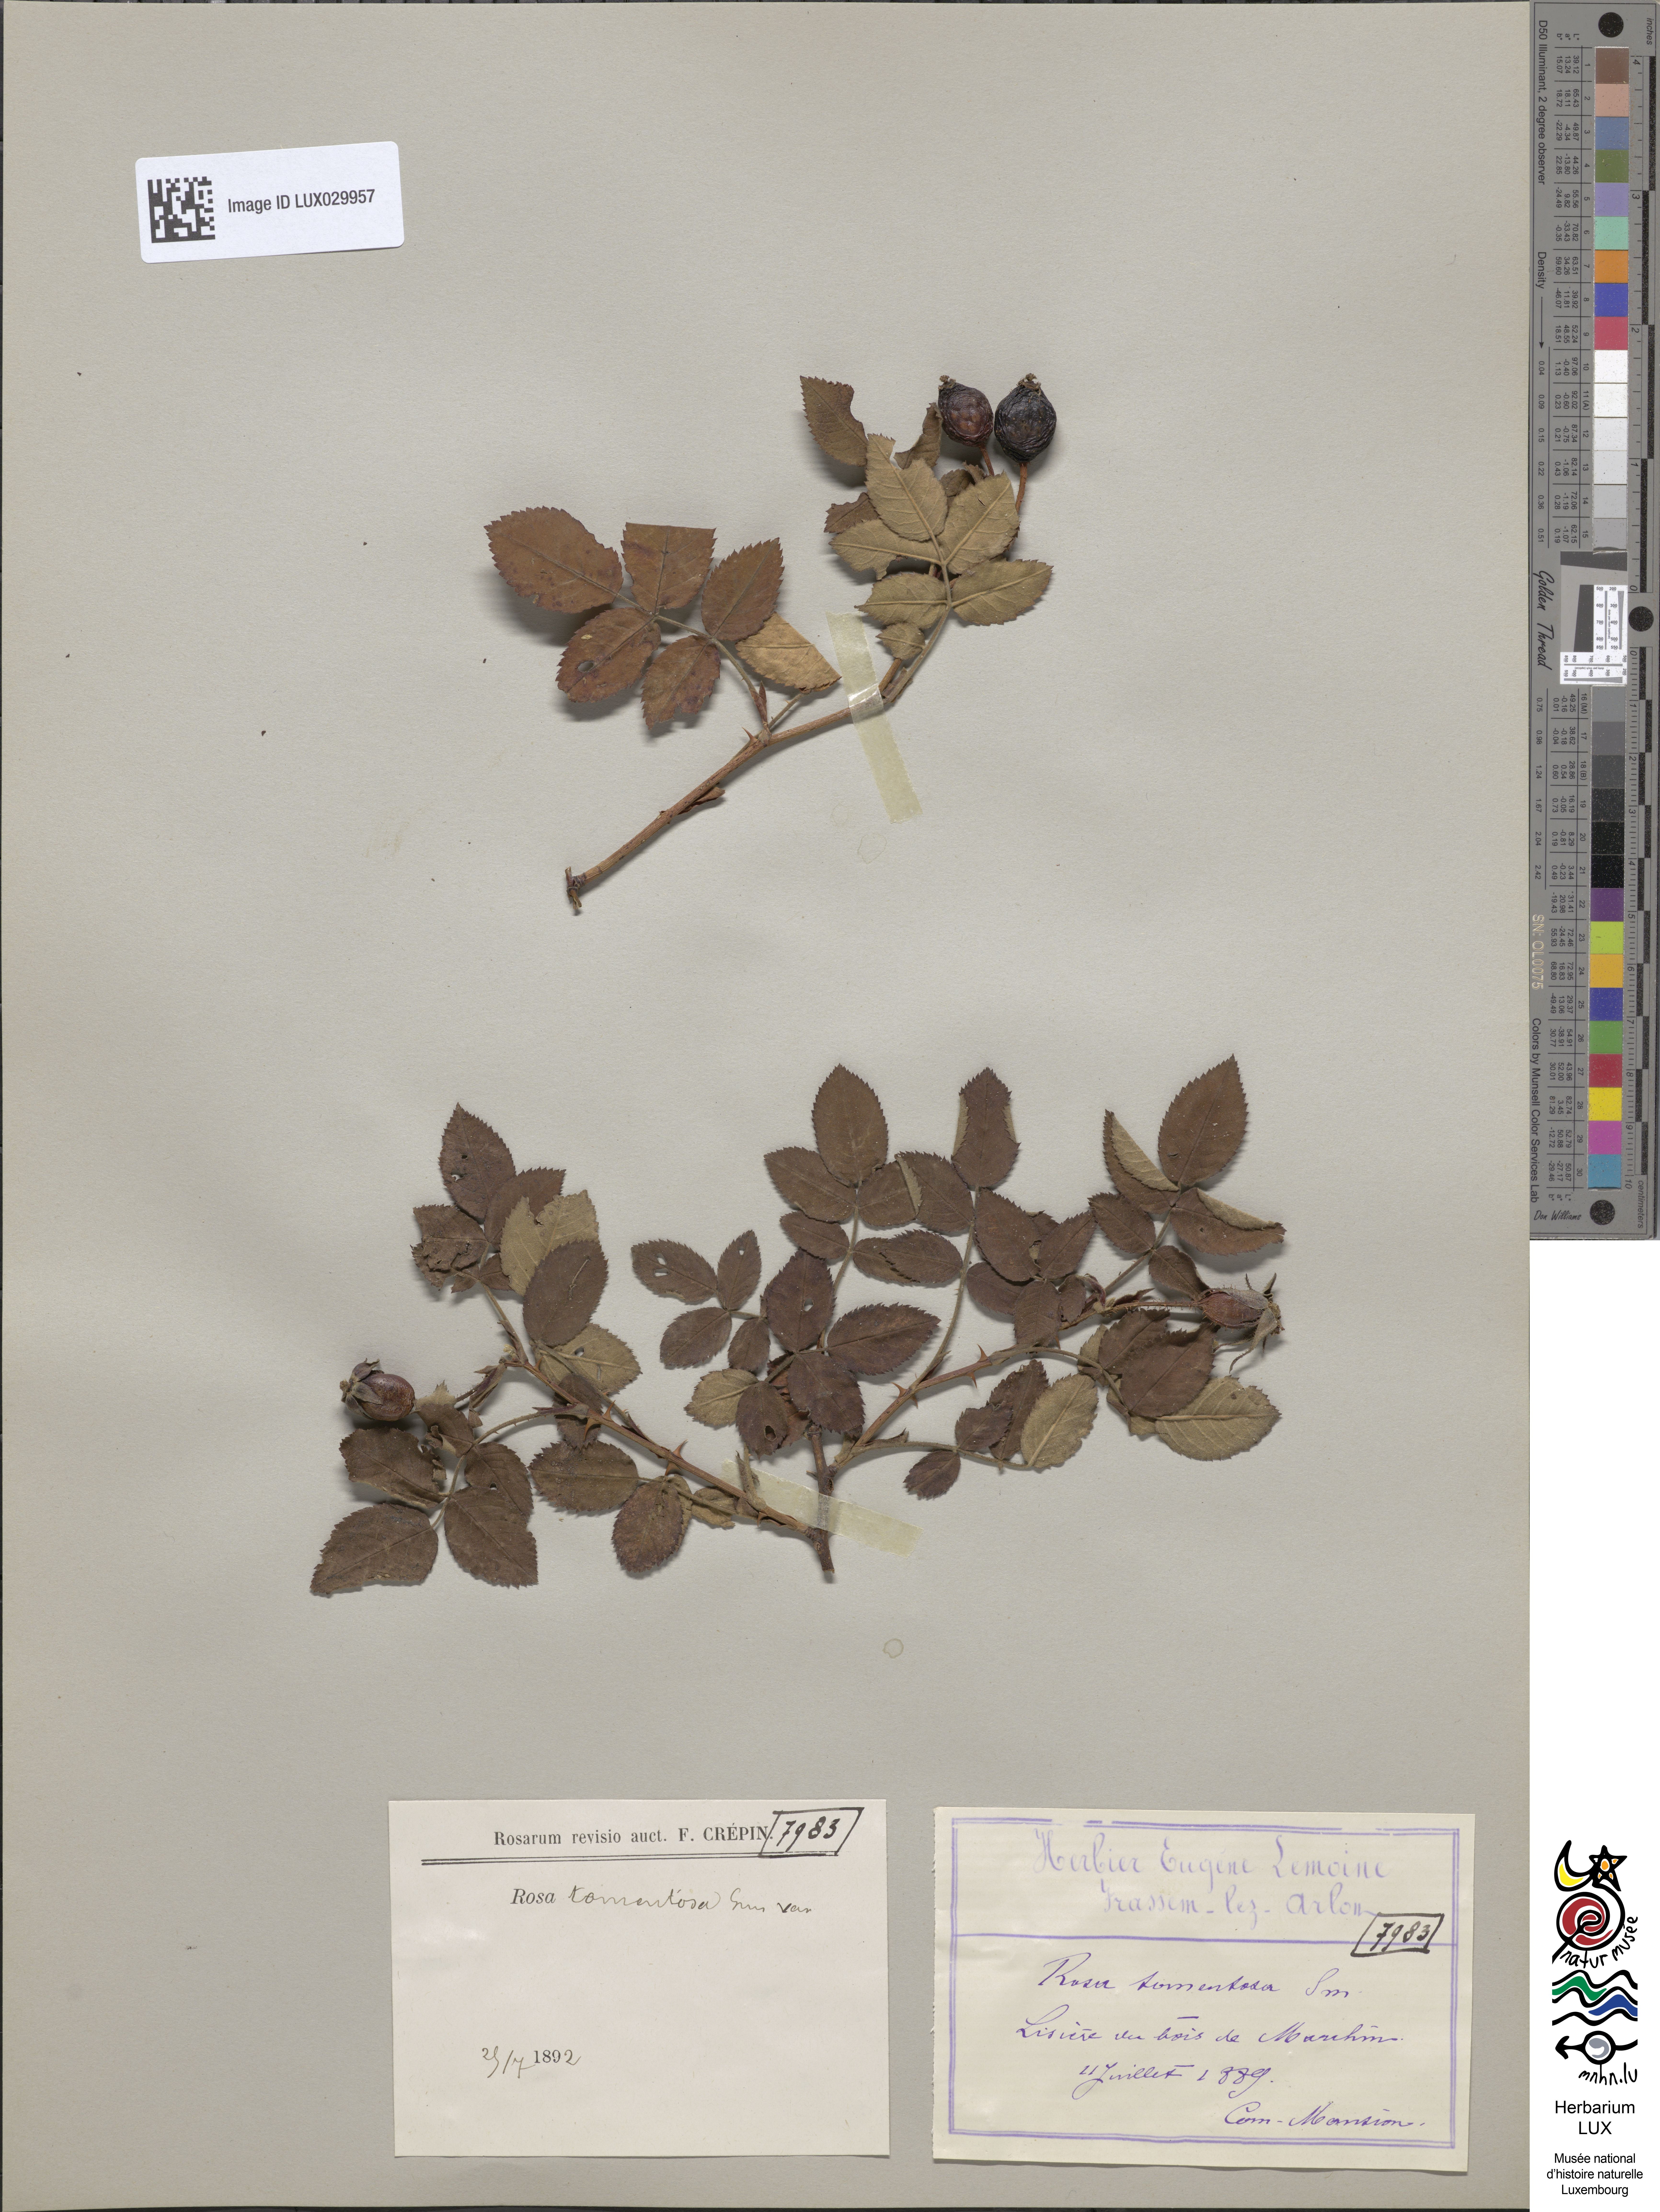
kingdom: Plantae
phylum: Tracheophyta
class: Magnoliopsida
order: Rosales
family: Rosaceae
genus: Rosa
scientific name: Rosa tomentosa
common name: Downy rose
